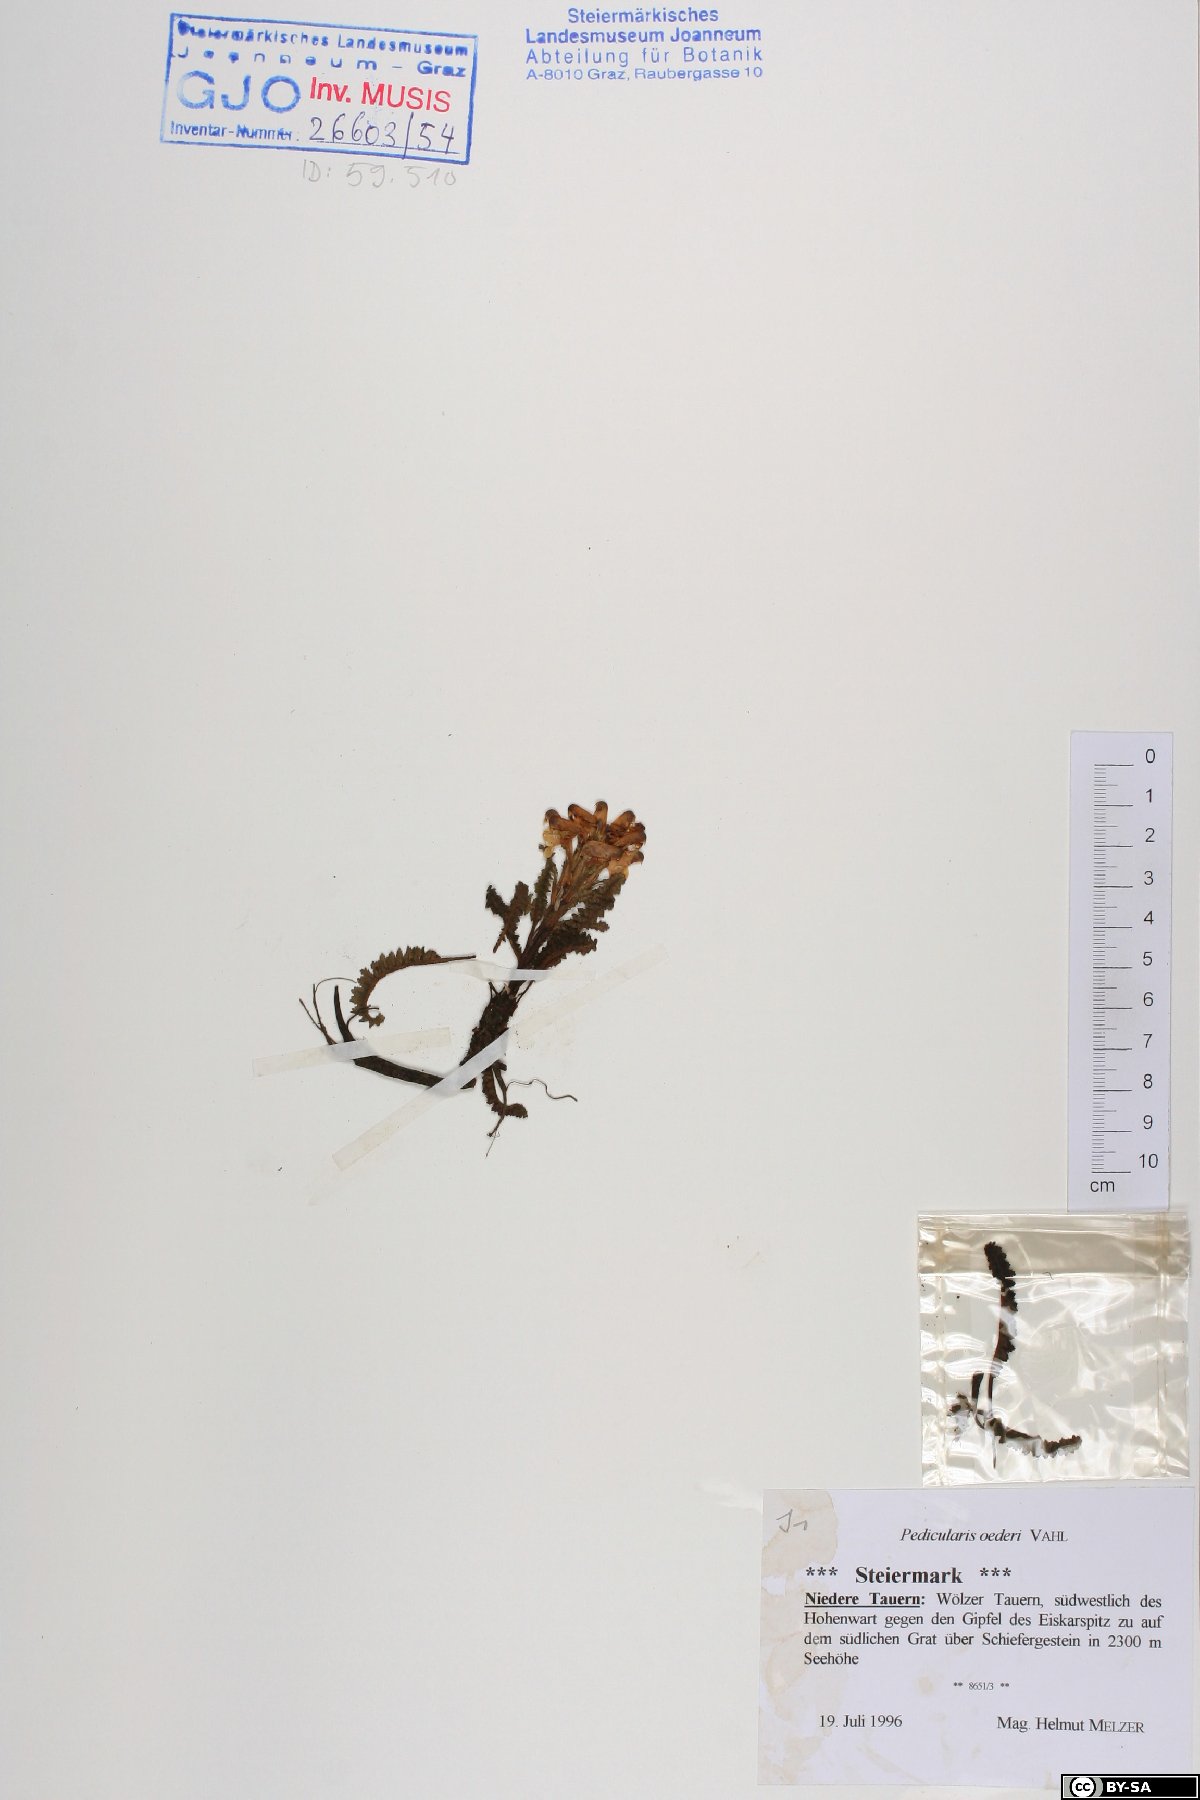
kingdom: Plantae
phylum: Tracheophyta
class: Magnoliopsida
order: Lamiales
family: Orobanchaceae
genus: Pedicularis
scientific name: Pedicularis oederi
